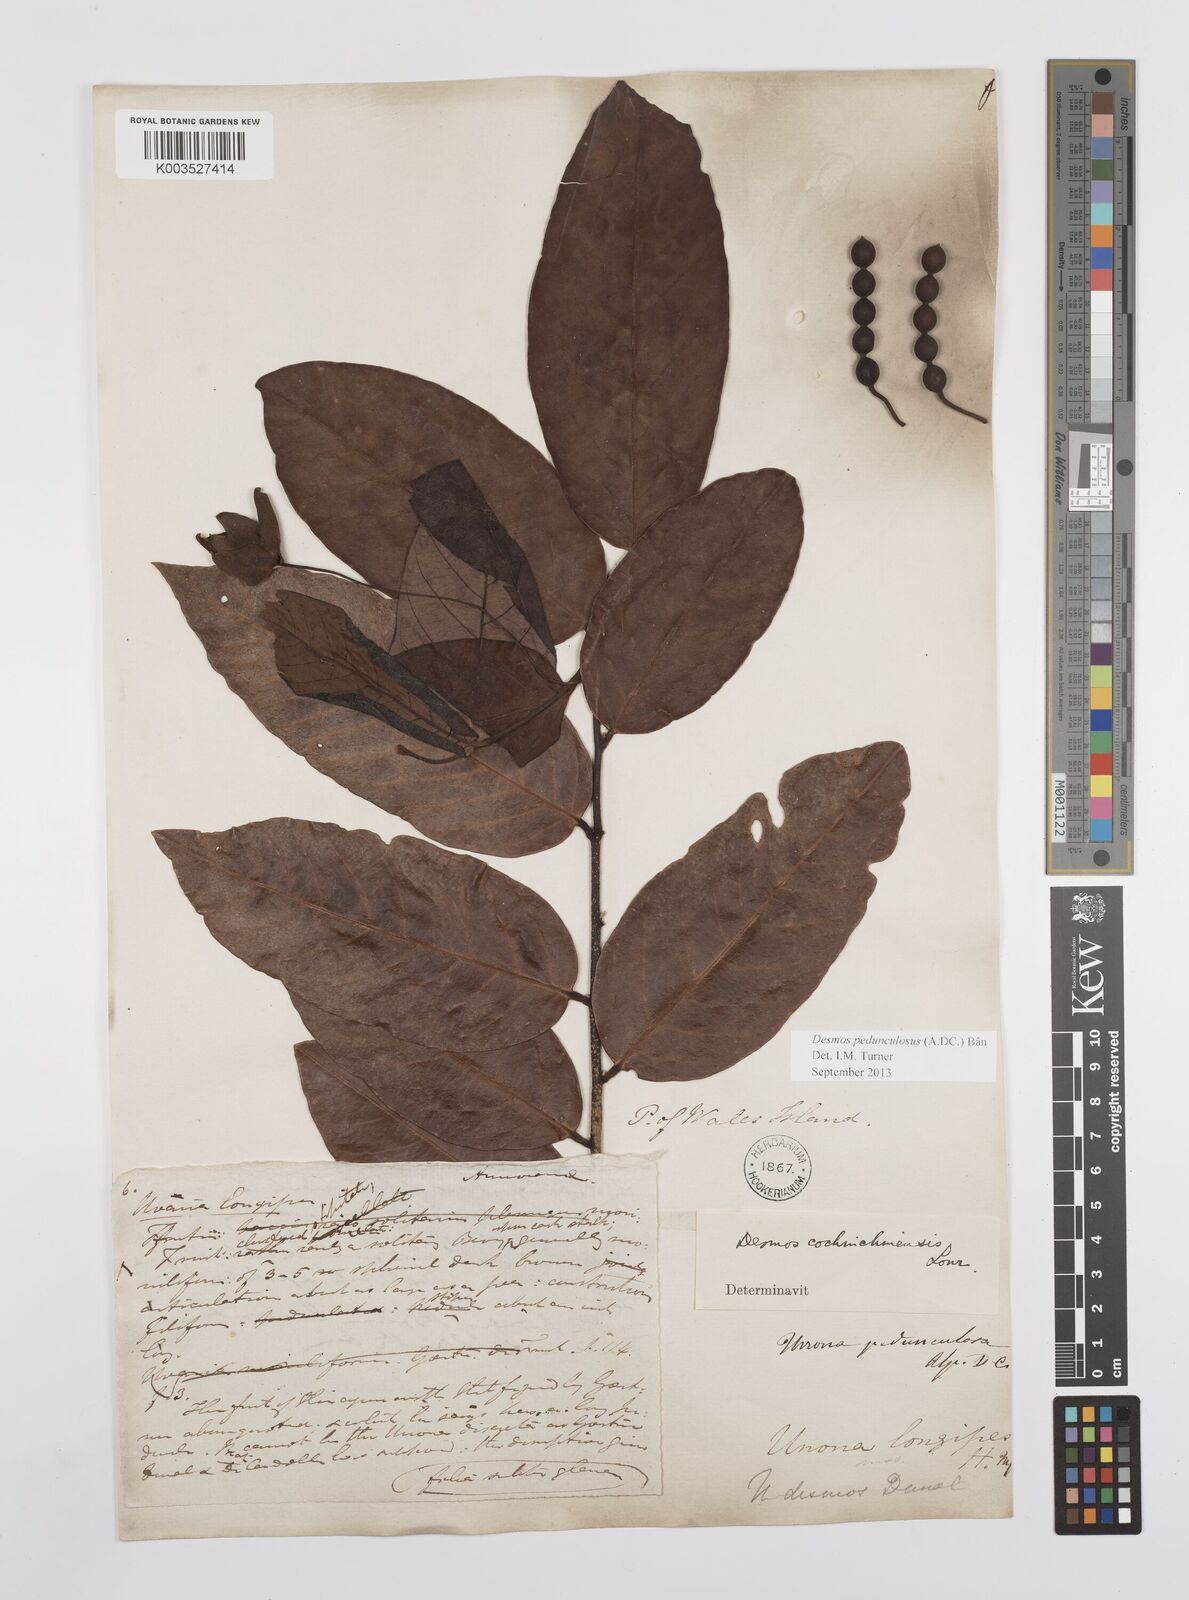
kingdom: Plantae
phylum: Tracheophyta
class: Magnoliopsida
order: Magnoliales
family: Annonaceae
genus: Desmos
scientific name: Desmos cochinchinensis
